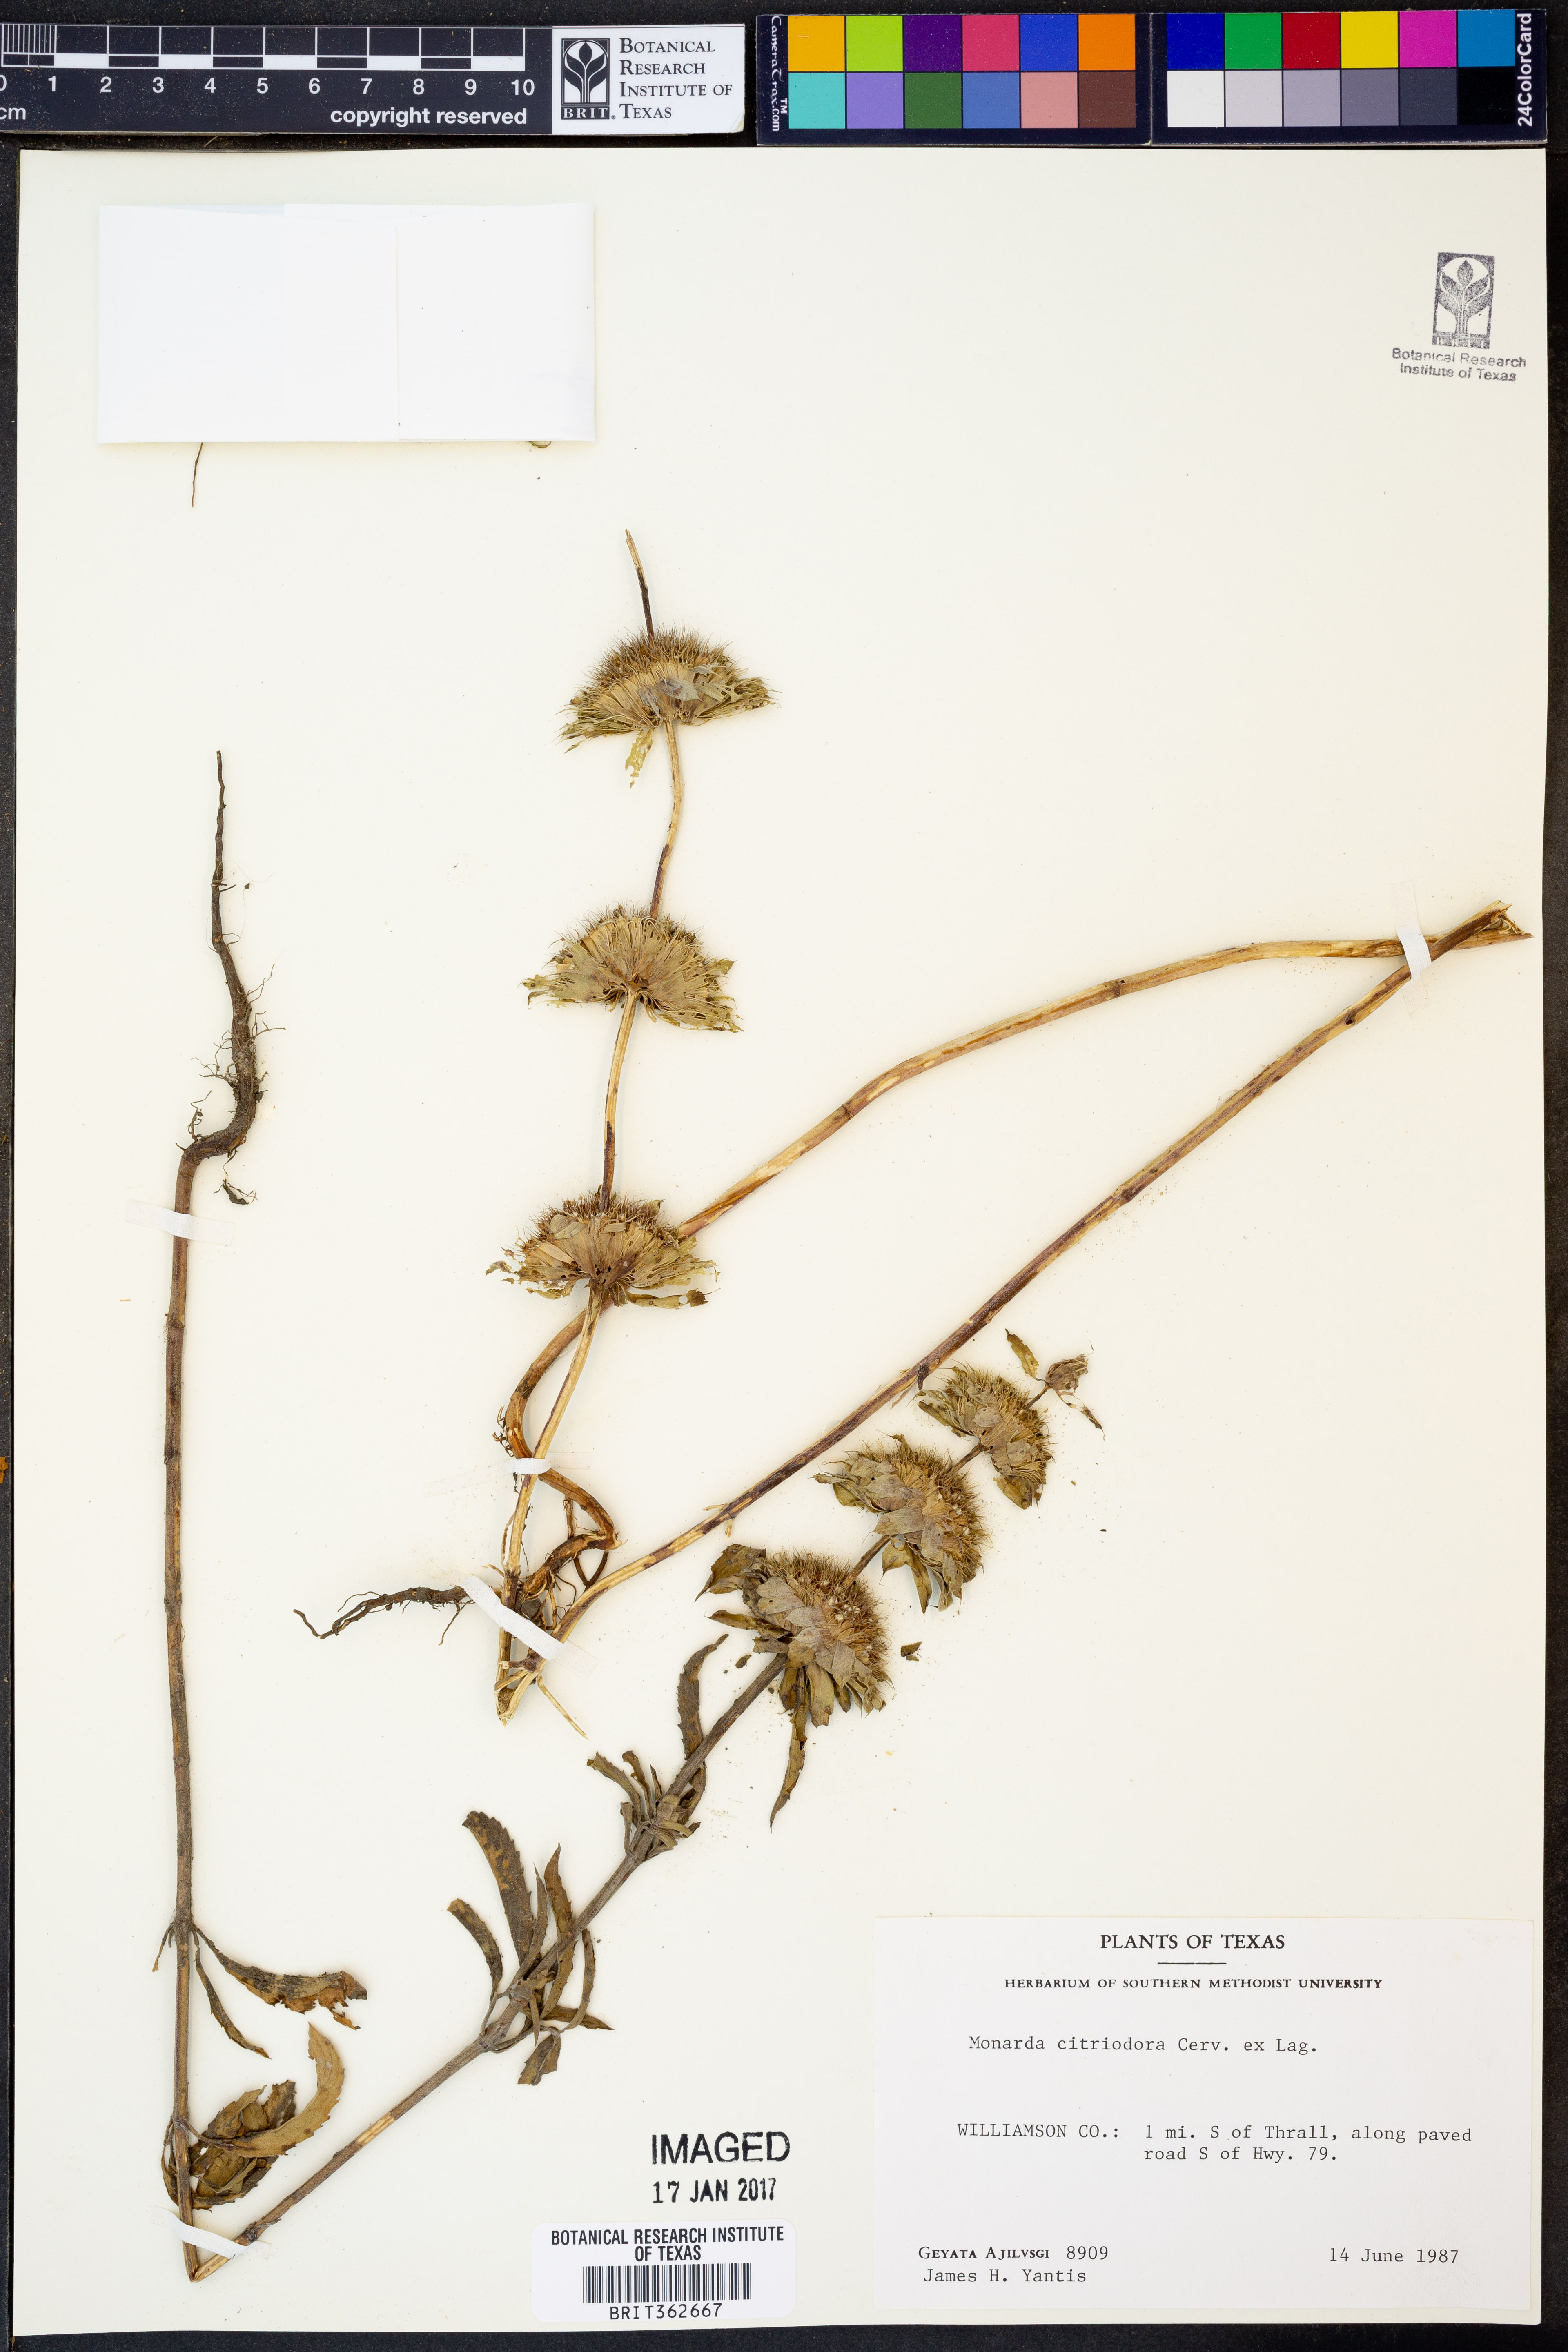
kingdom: Plantae
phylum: Tracheophyta
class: Magnoliopsida
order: Lamiales
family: Lamiaceae
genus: Monarda
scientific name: Monarda citriodora
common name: Lemon beebalm
